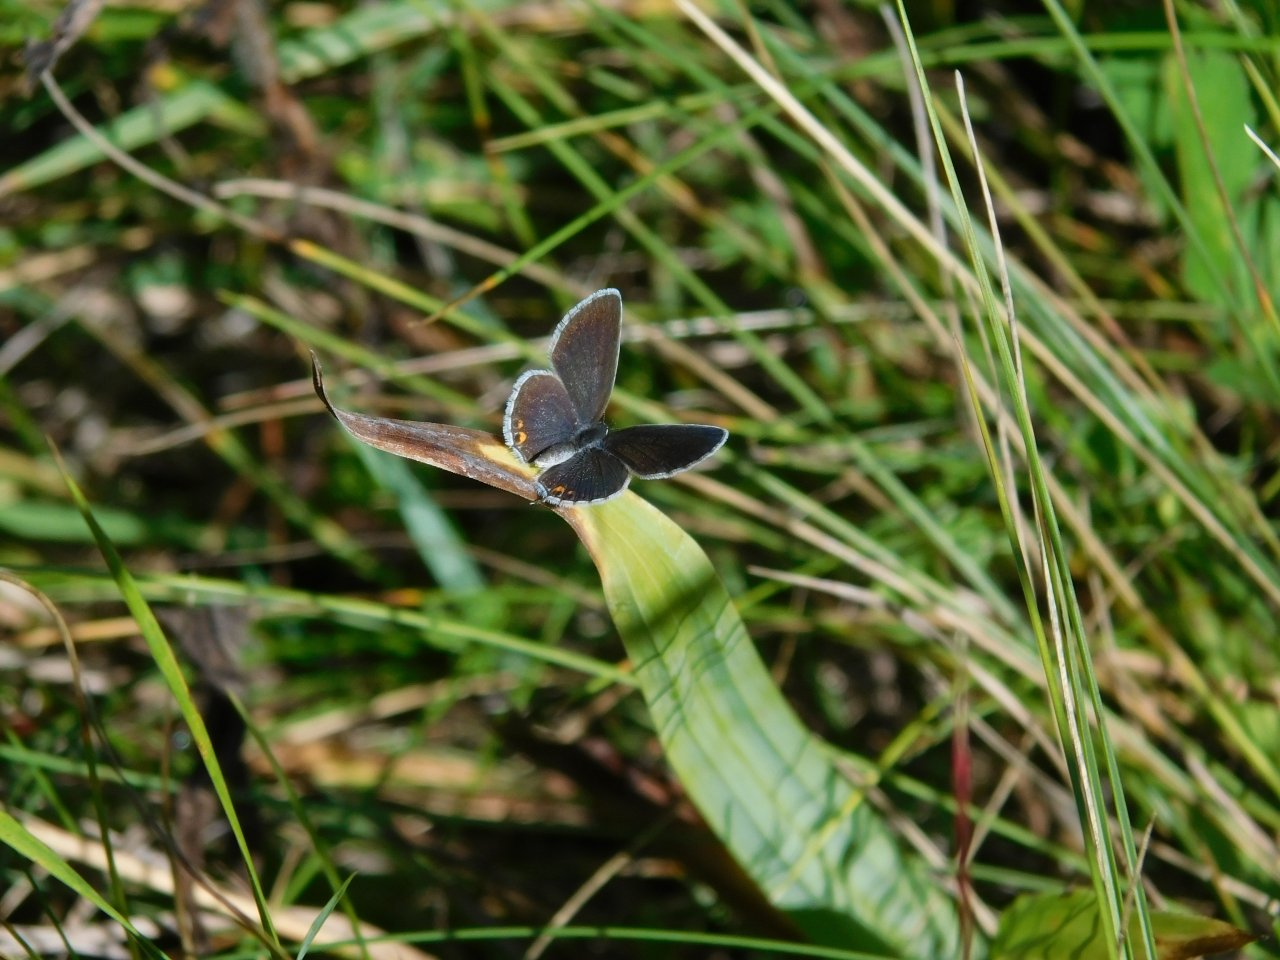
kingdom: Animalia
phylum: Arthropoda
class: Insecta
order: Lepidoptera
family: Lycaenidae
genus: Elkalyce
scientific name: Elkalyce comyntas
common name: Eastern Tailed-Blue
